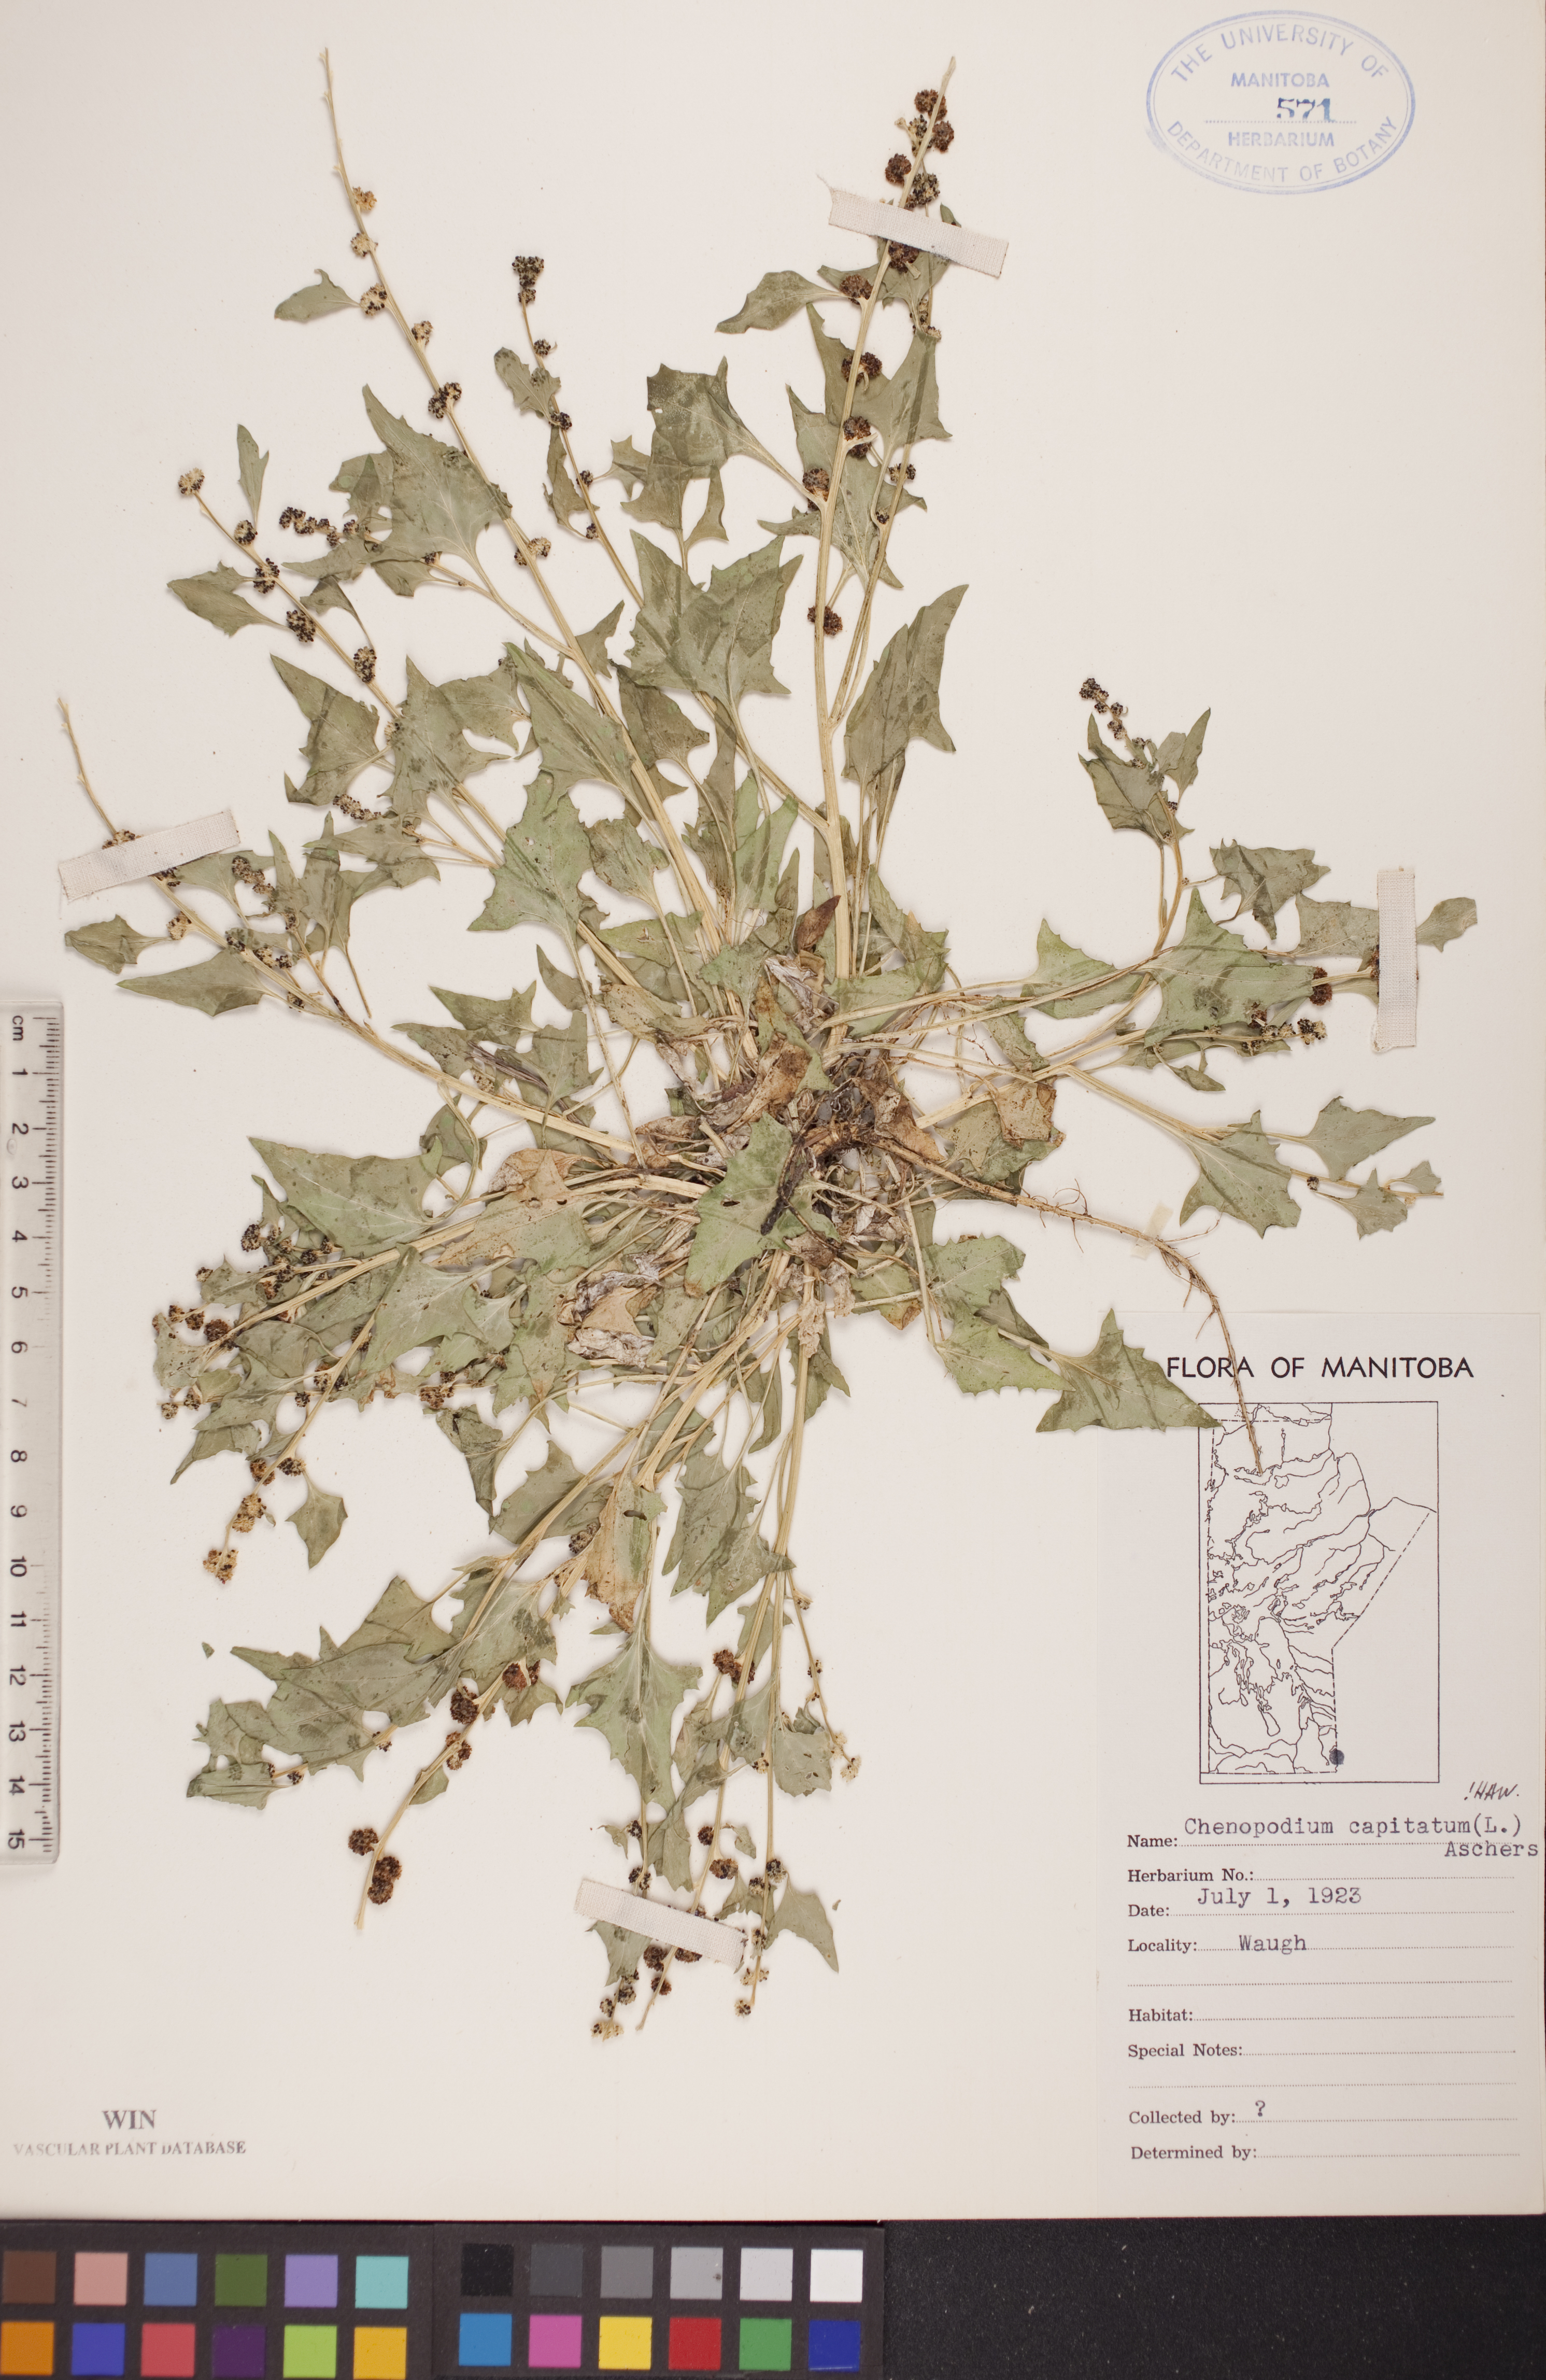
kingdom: Plantae
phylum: Tracheophyta
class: Magnoliopsida
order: Caryophyllales
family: Amaranthaceae
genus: Blitum
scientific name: Blitum capitatum
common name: Strawberry-blight
